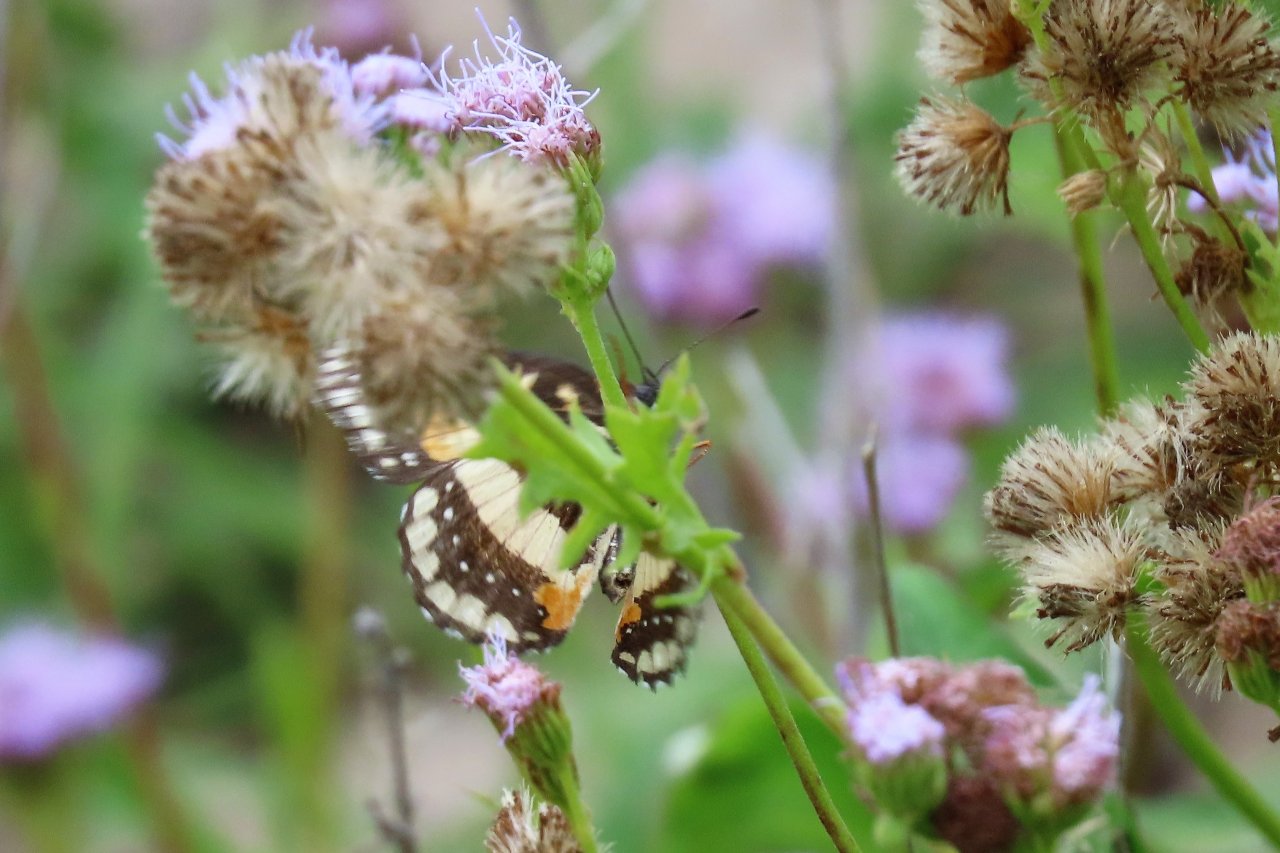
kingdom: Animalia
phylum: Arthropoda
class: Insecta
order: Lepidoptera
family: Nymphalidae
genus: Chlosyne
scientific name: Chlosyne lacinia
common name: Bordered Patch
